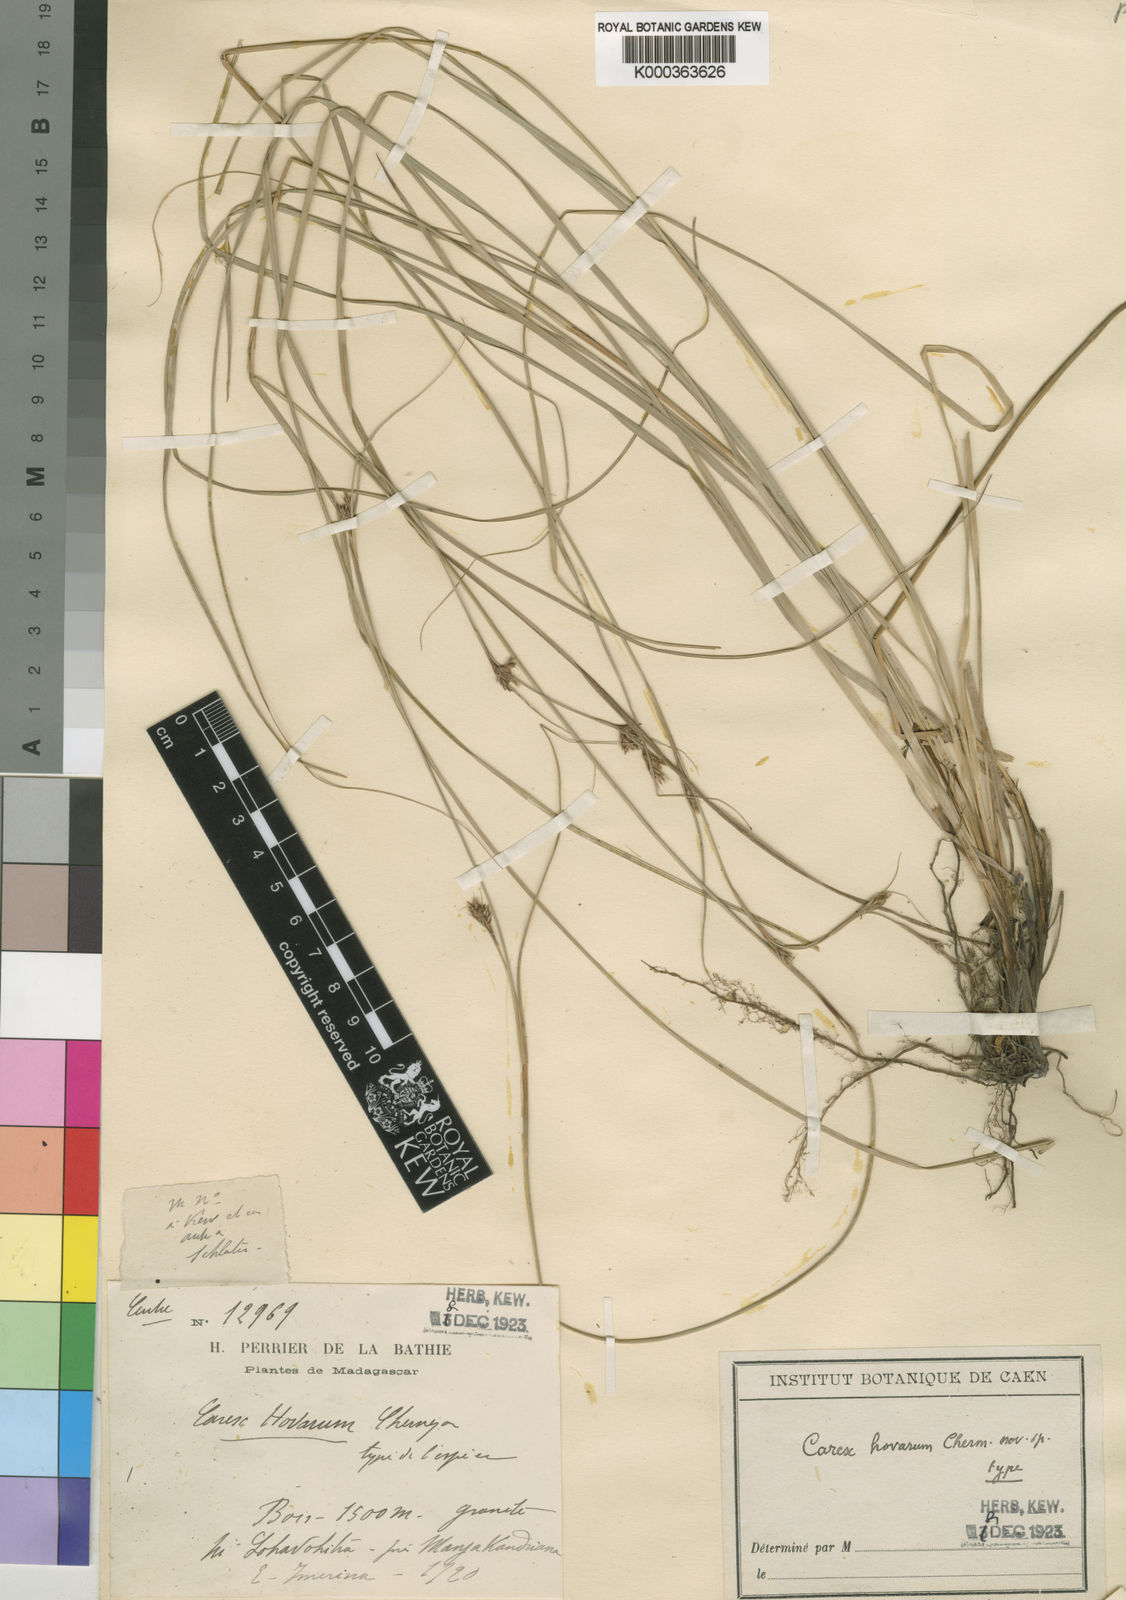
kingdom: Plantae
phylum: Tracheophyta
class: Liliopsida
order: Poales
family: Cyperaceae
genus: Carex
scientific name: Carex hovarum
